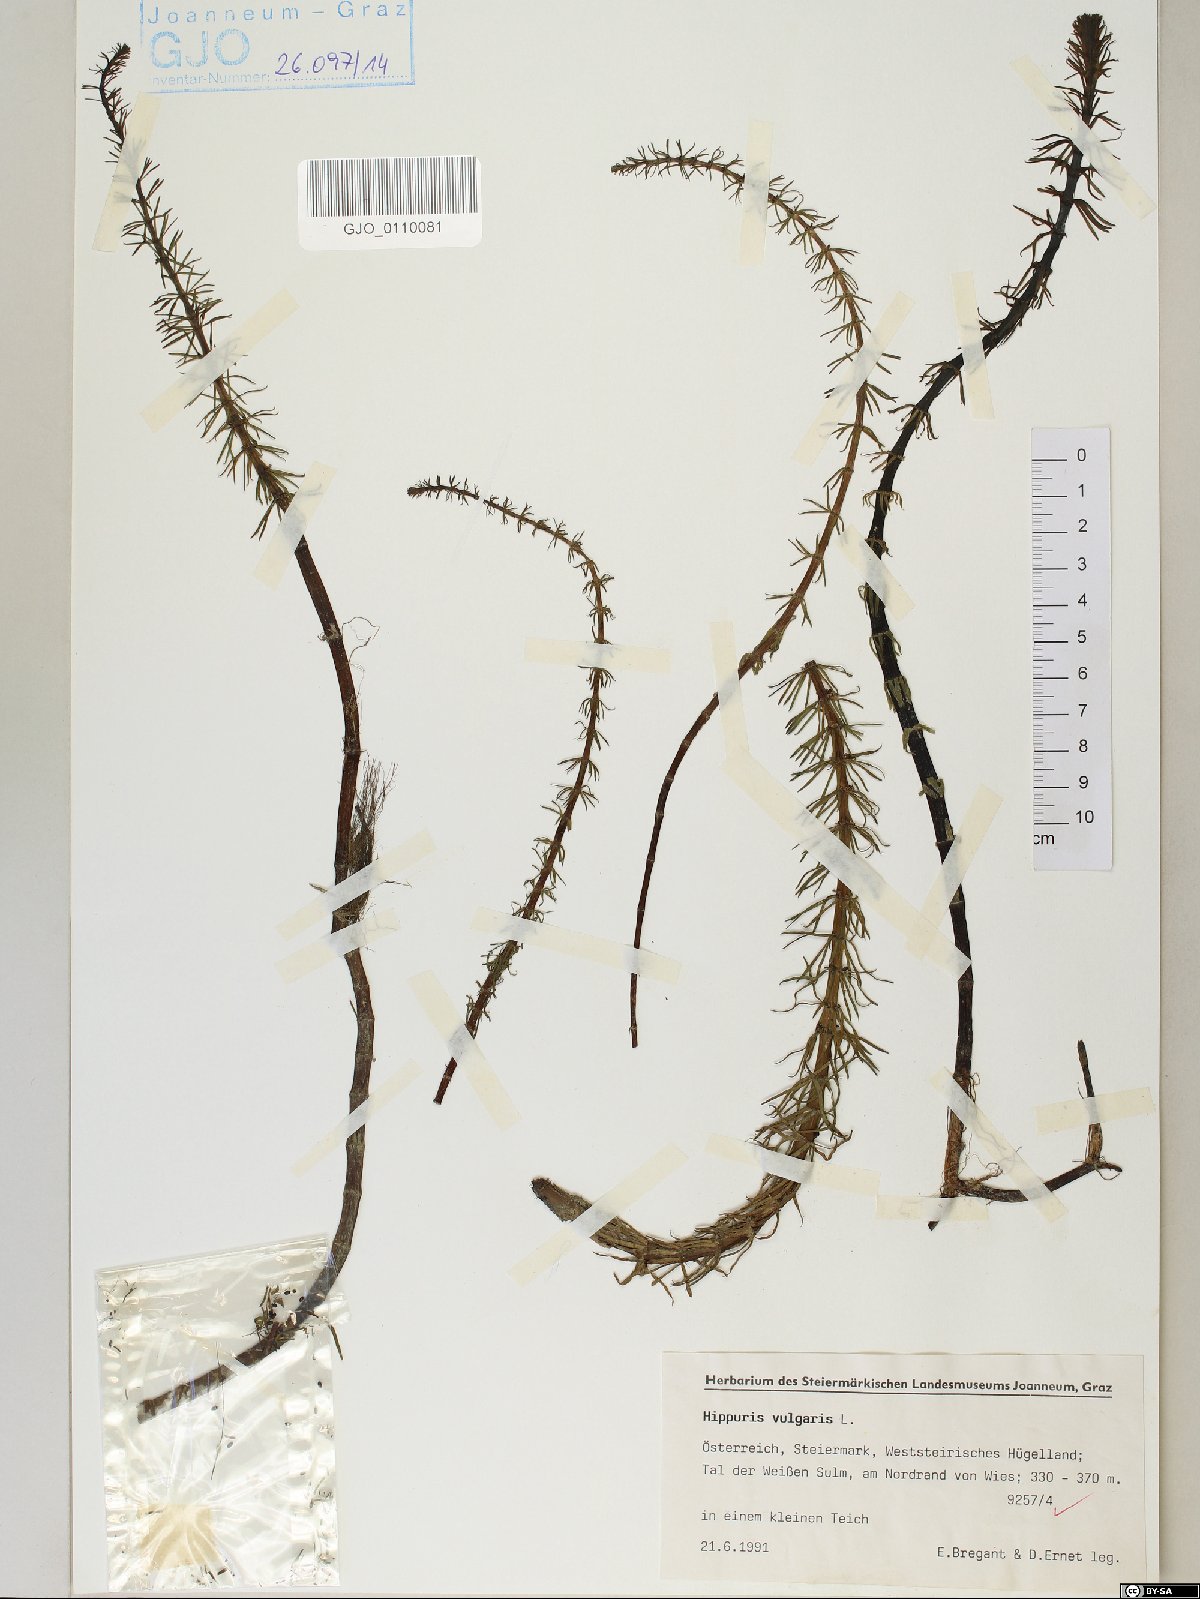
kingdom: Plantae
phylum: Tracheophyta
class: Magnoliopsida
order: Lamiales
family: Plantaginaceae
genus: Hippuris
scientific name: Hippuris vulgaris
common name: Mare's-tail
